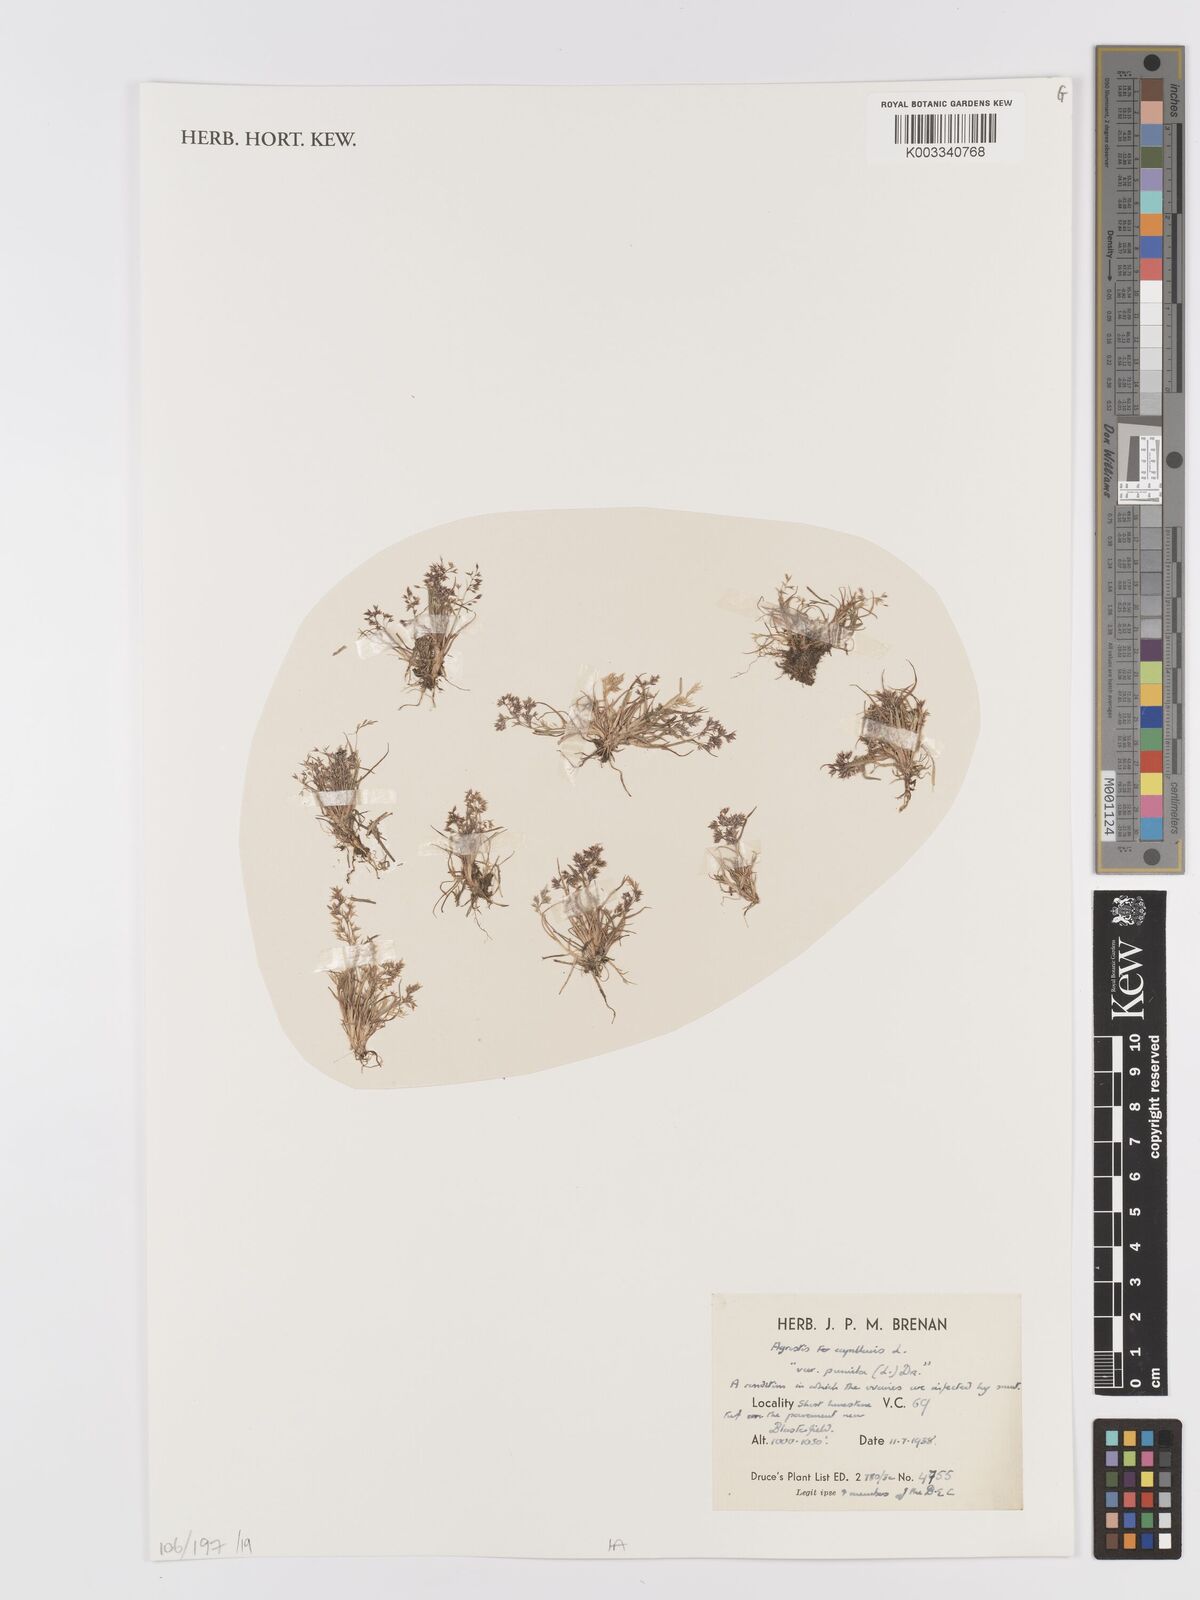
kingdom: Plantae
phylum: Tracheophyta
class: Liliopsida
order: Poales
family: Poaceae
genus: Agrostis
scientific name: Agrostis capillaris
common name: Colonial bentgrass
